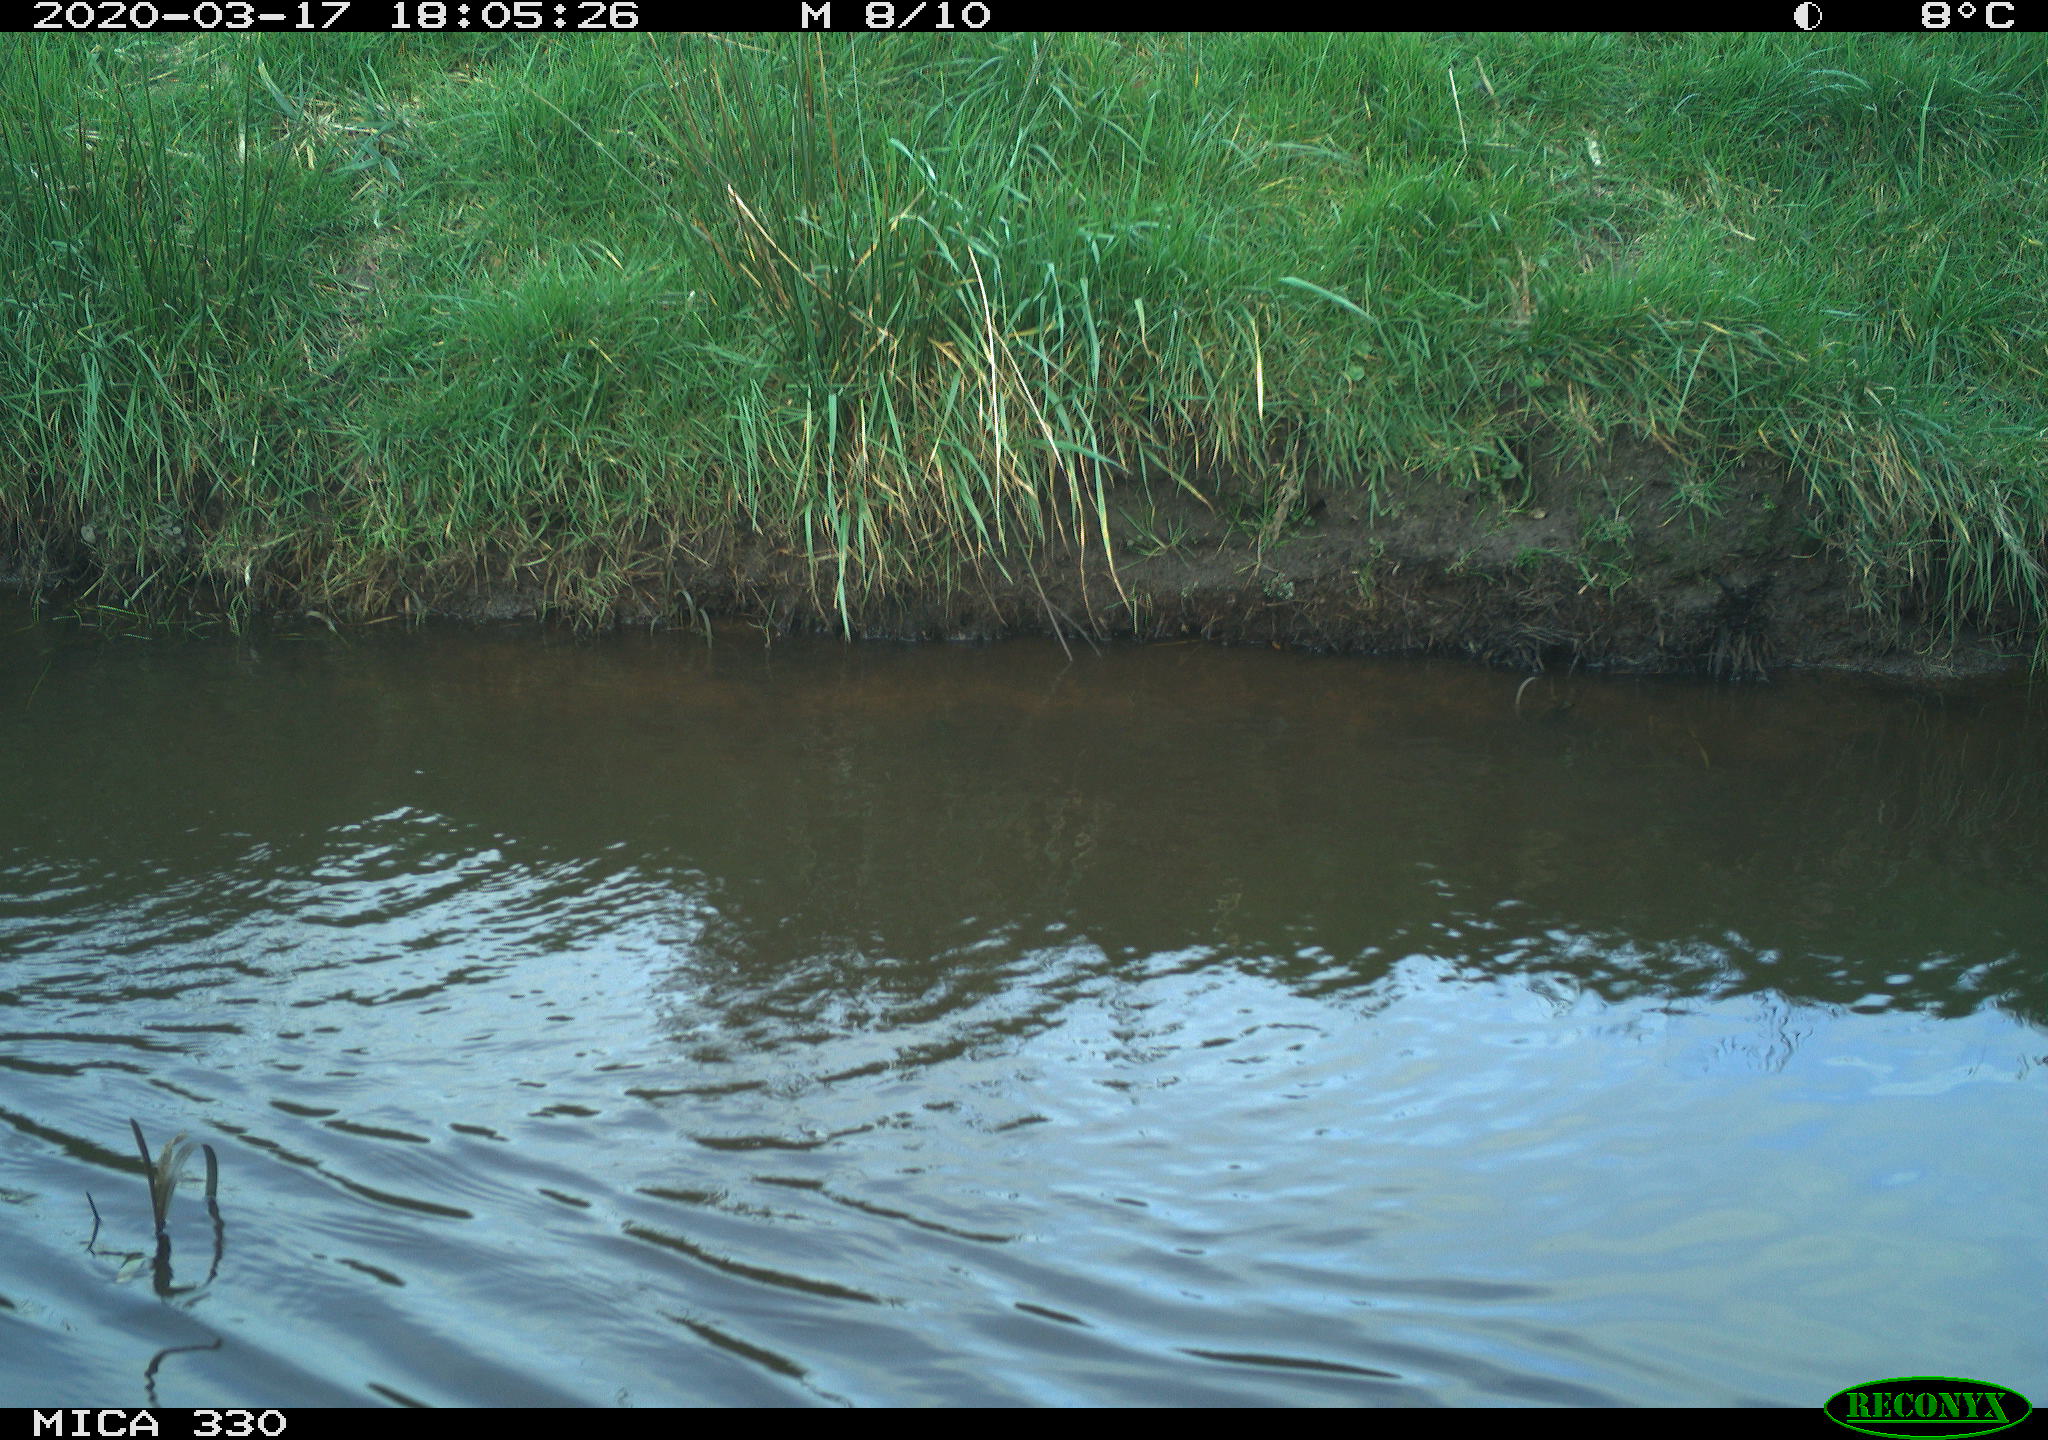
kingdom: Animalia
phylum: Chordata
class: Aves
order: Anseriformes
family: Anatidae
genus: Anas
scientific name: Anas platyrhynchos
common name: Mallard
